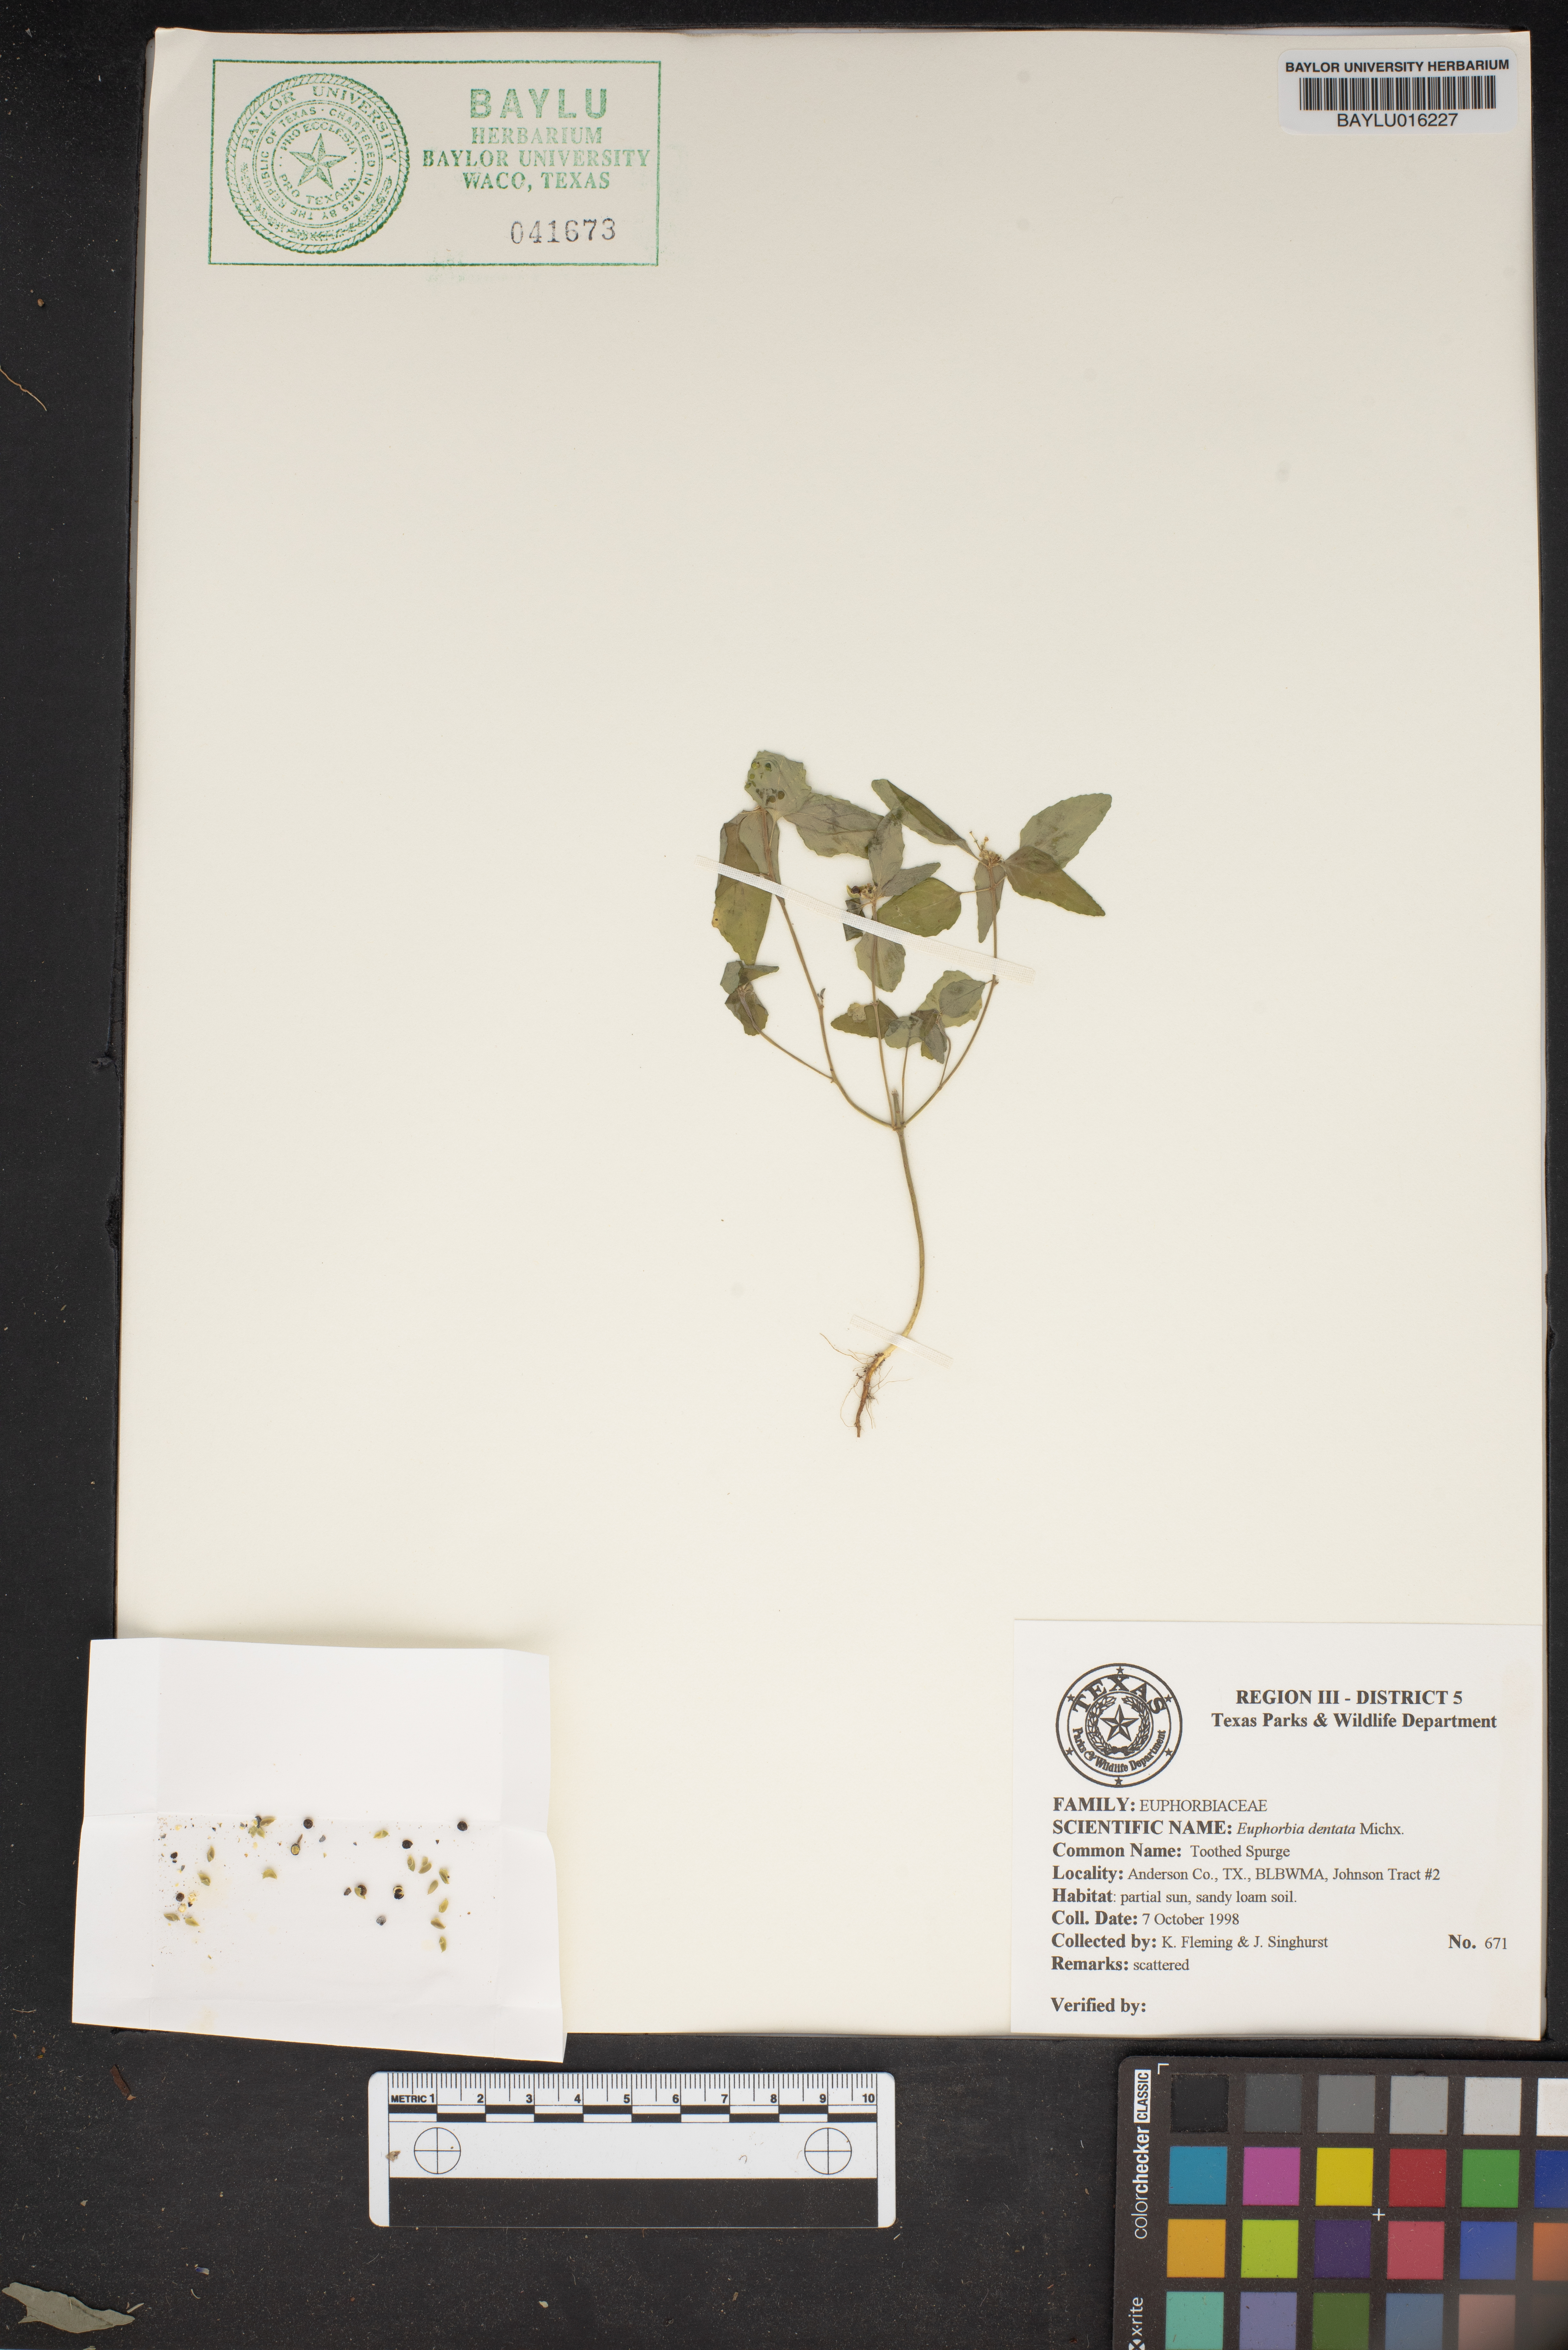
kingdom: Plantae
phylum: Tracheophyta
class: Magnoliopsida
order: Malpighiales
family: Euphorbiaceae
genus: Euphorbia
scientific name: Euphorbia dentata
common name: Dentate spurge
